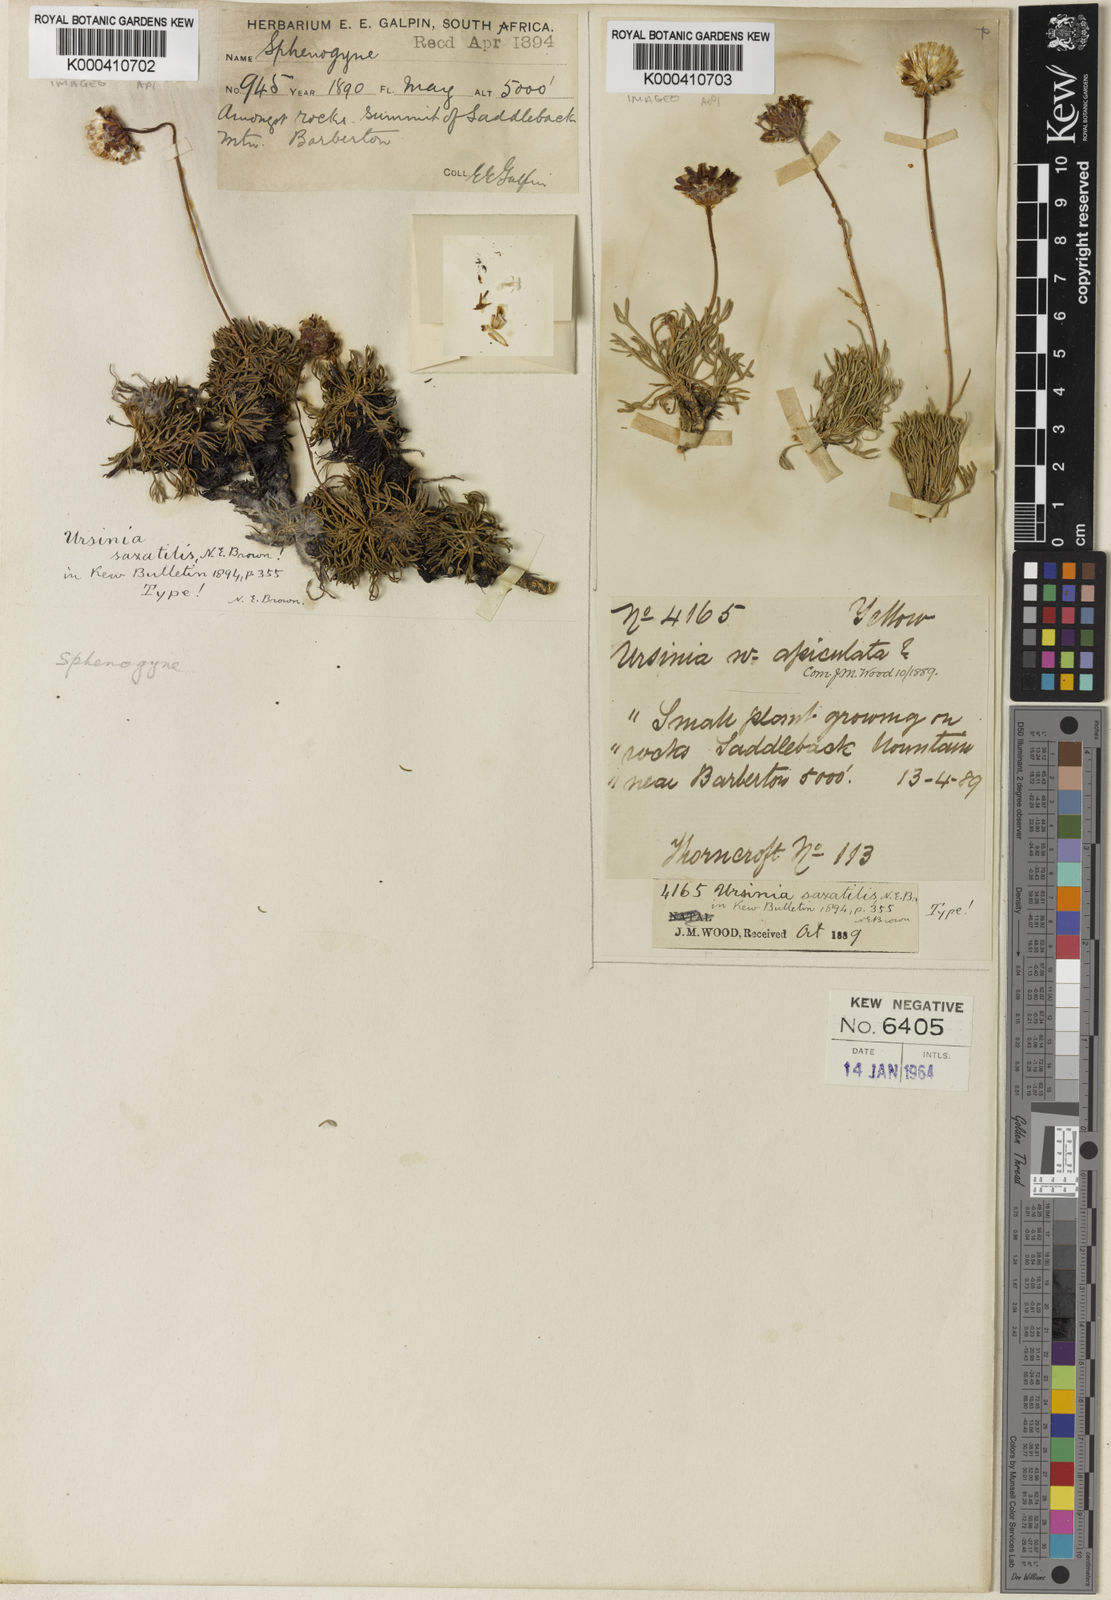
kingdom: Plantae
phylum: Tracheophyta
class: Magnoliopsida
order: Asterales
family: Asteraceae
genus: Ursinia
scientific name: Ursinia saxatilis
